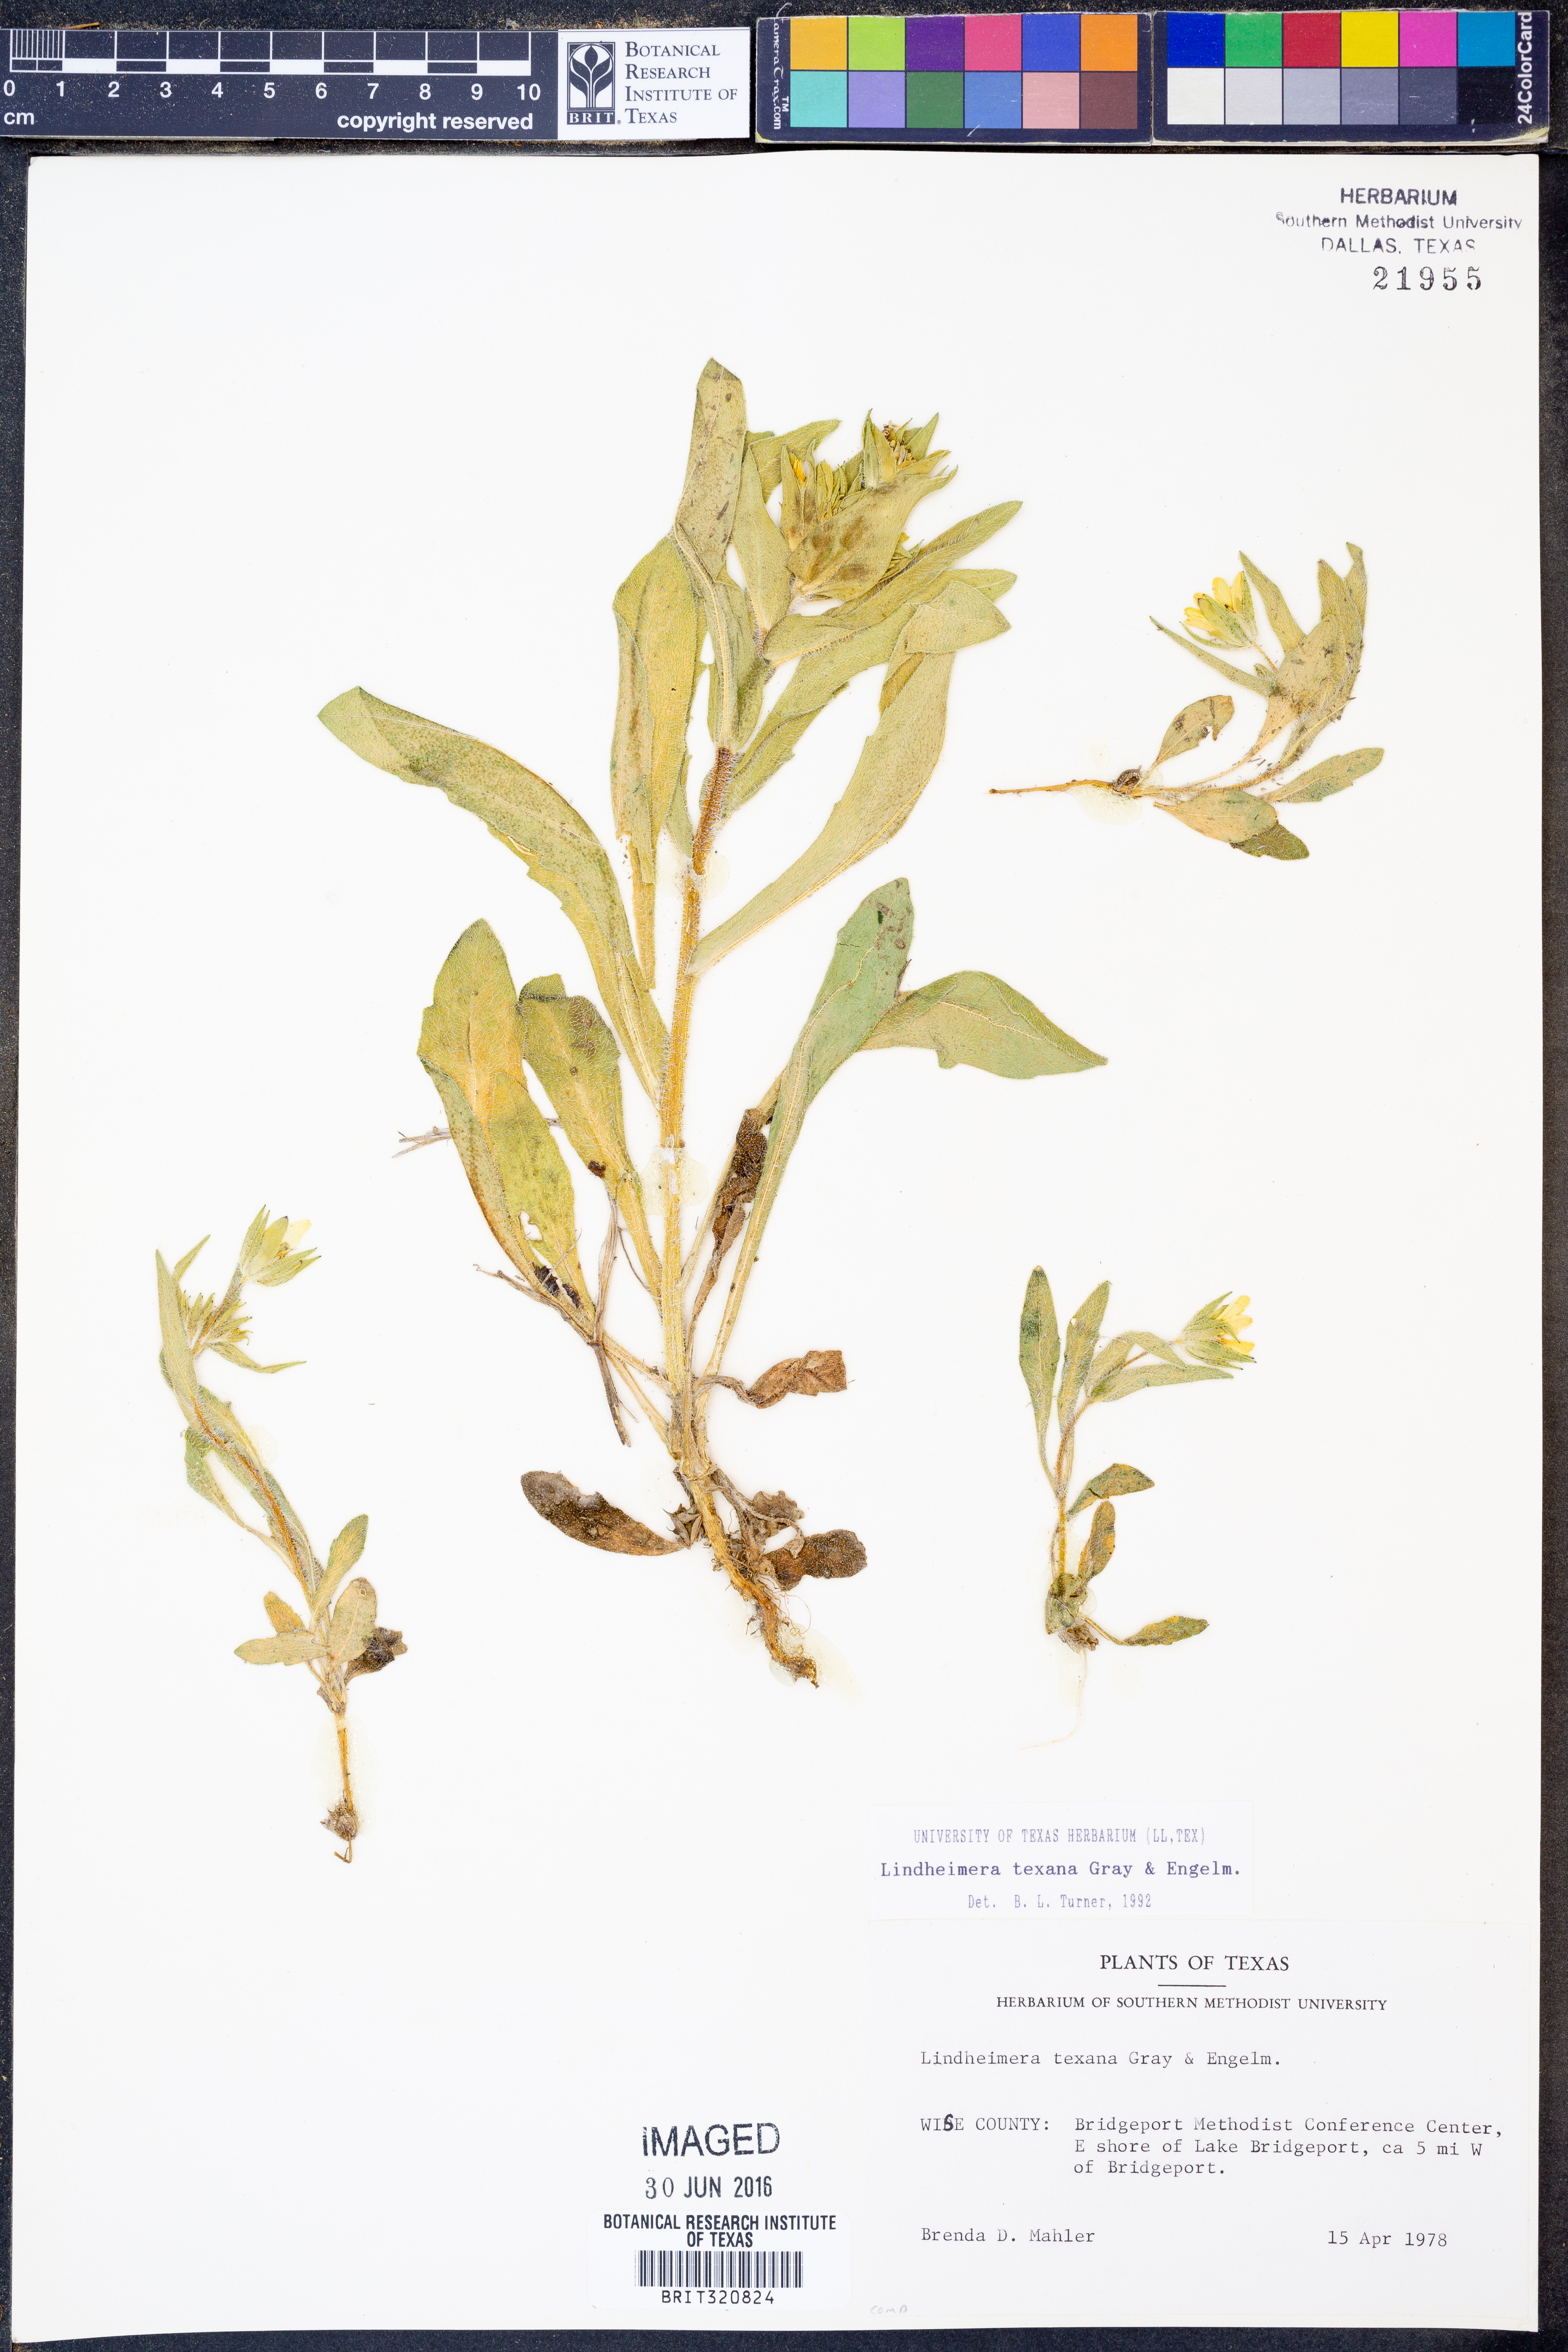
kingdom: Plantae
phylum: Tracheophyta
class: Magnoliopsida
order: Asterales
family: Asteraceae
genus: Lindheimera
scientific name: Lindheimera texana
